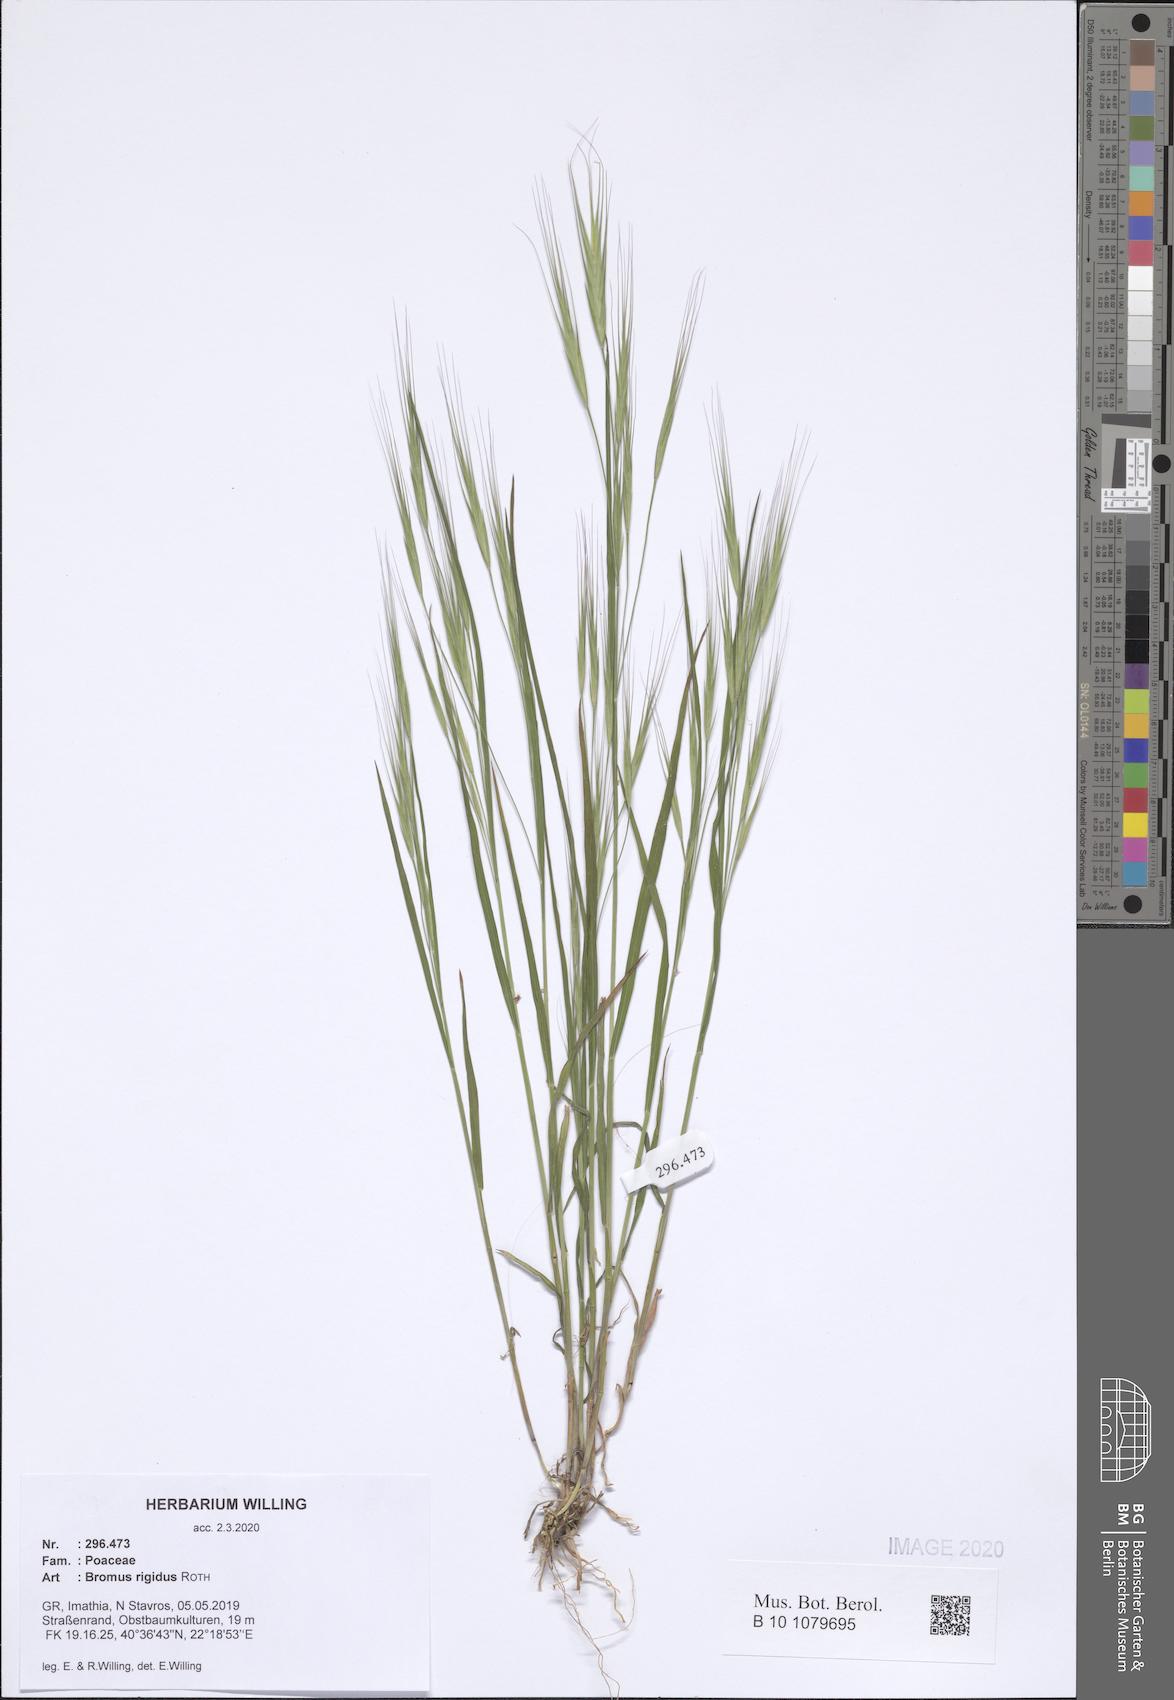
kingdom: Plantae
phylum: Tracheophyta
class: Liliopsida
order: Poales
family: Poaceae
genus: Bromus
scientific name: Bromus rigidus
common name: Ripgut brome
